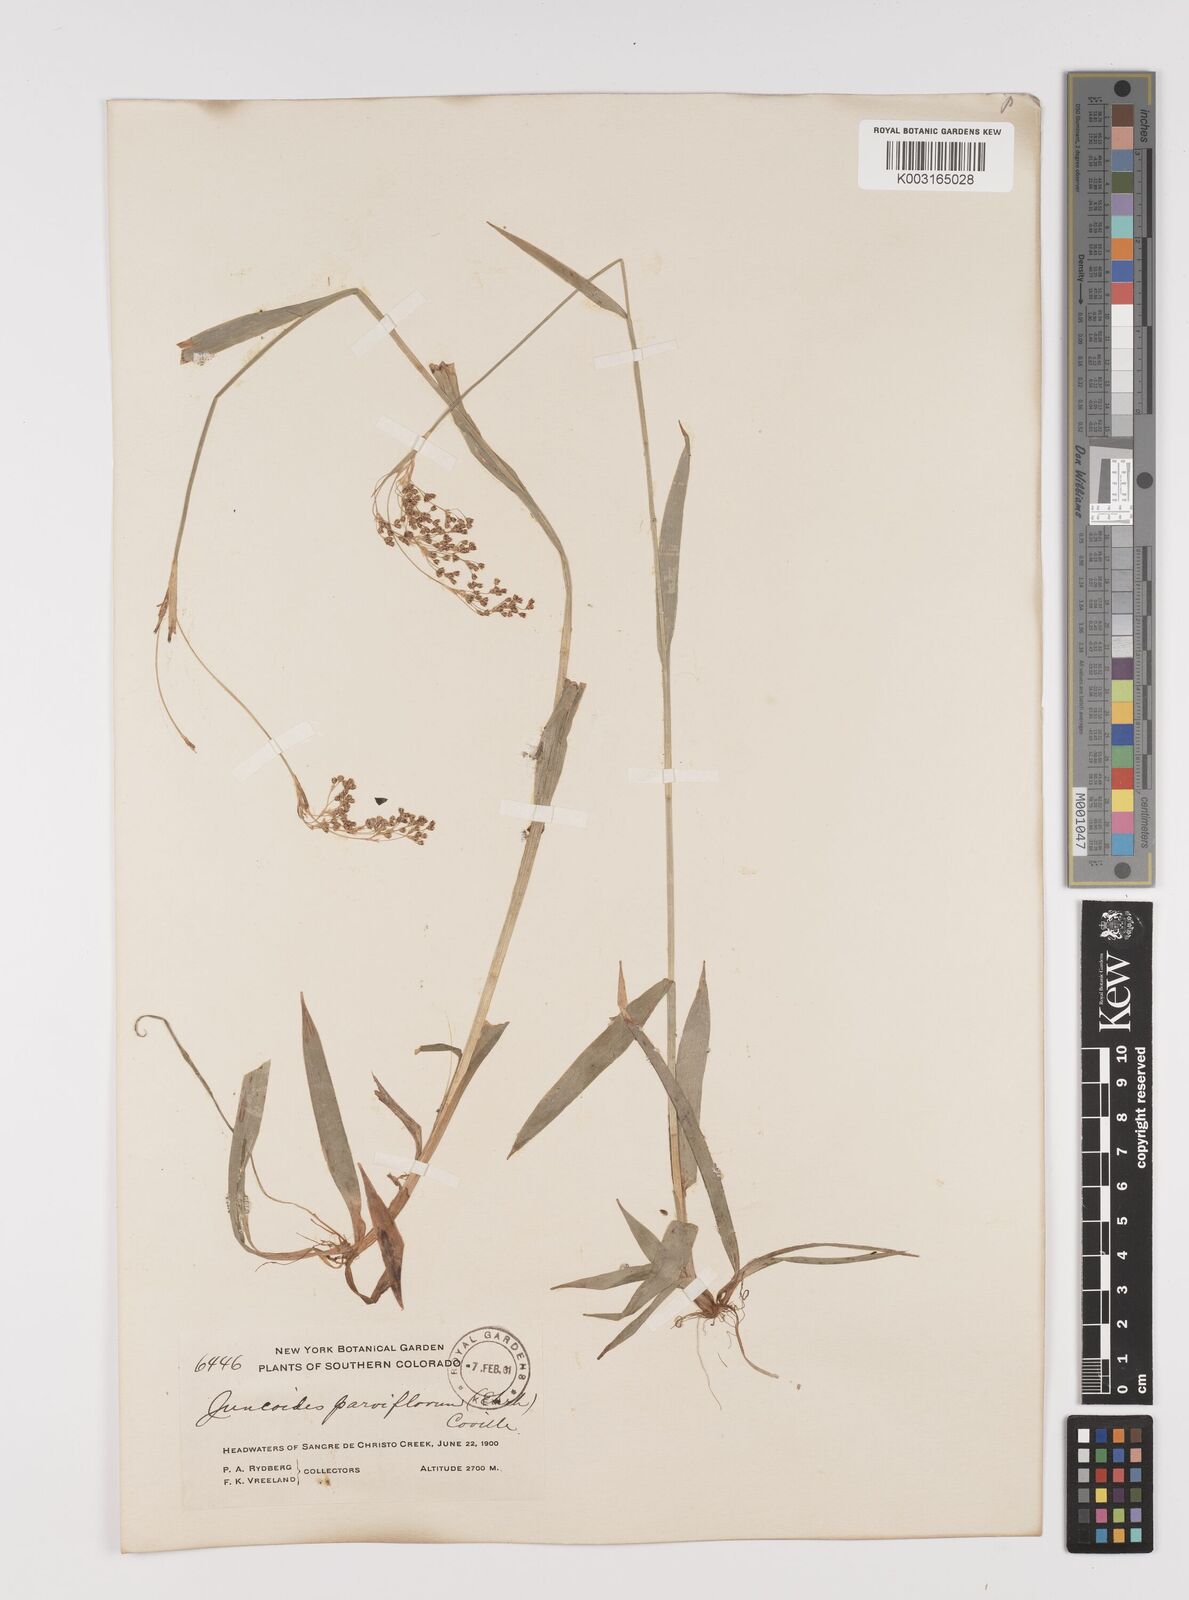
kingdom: Plantae
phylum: Tracheophyta
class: Liliopsida
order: Poales
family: Juncaceae
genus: Luzula
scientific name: Luzula parviflora
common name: Millet woodrush
